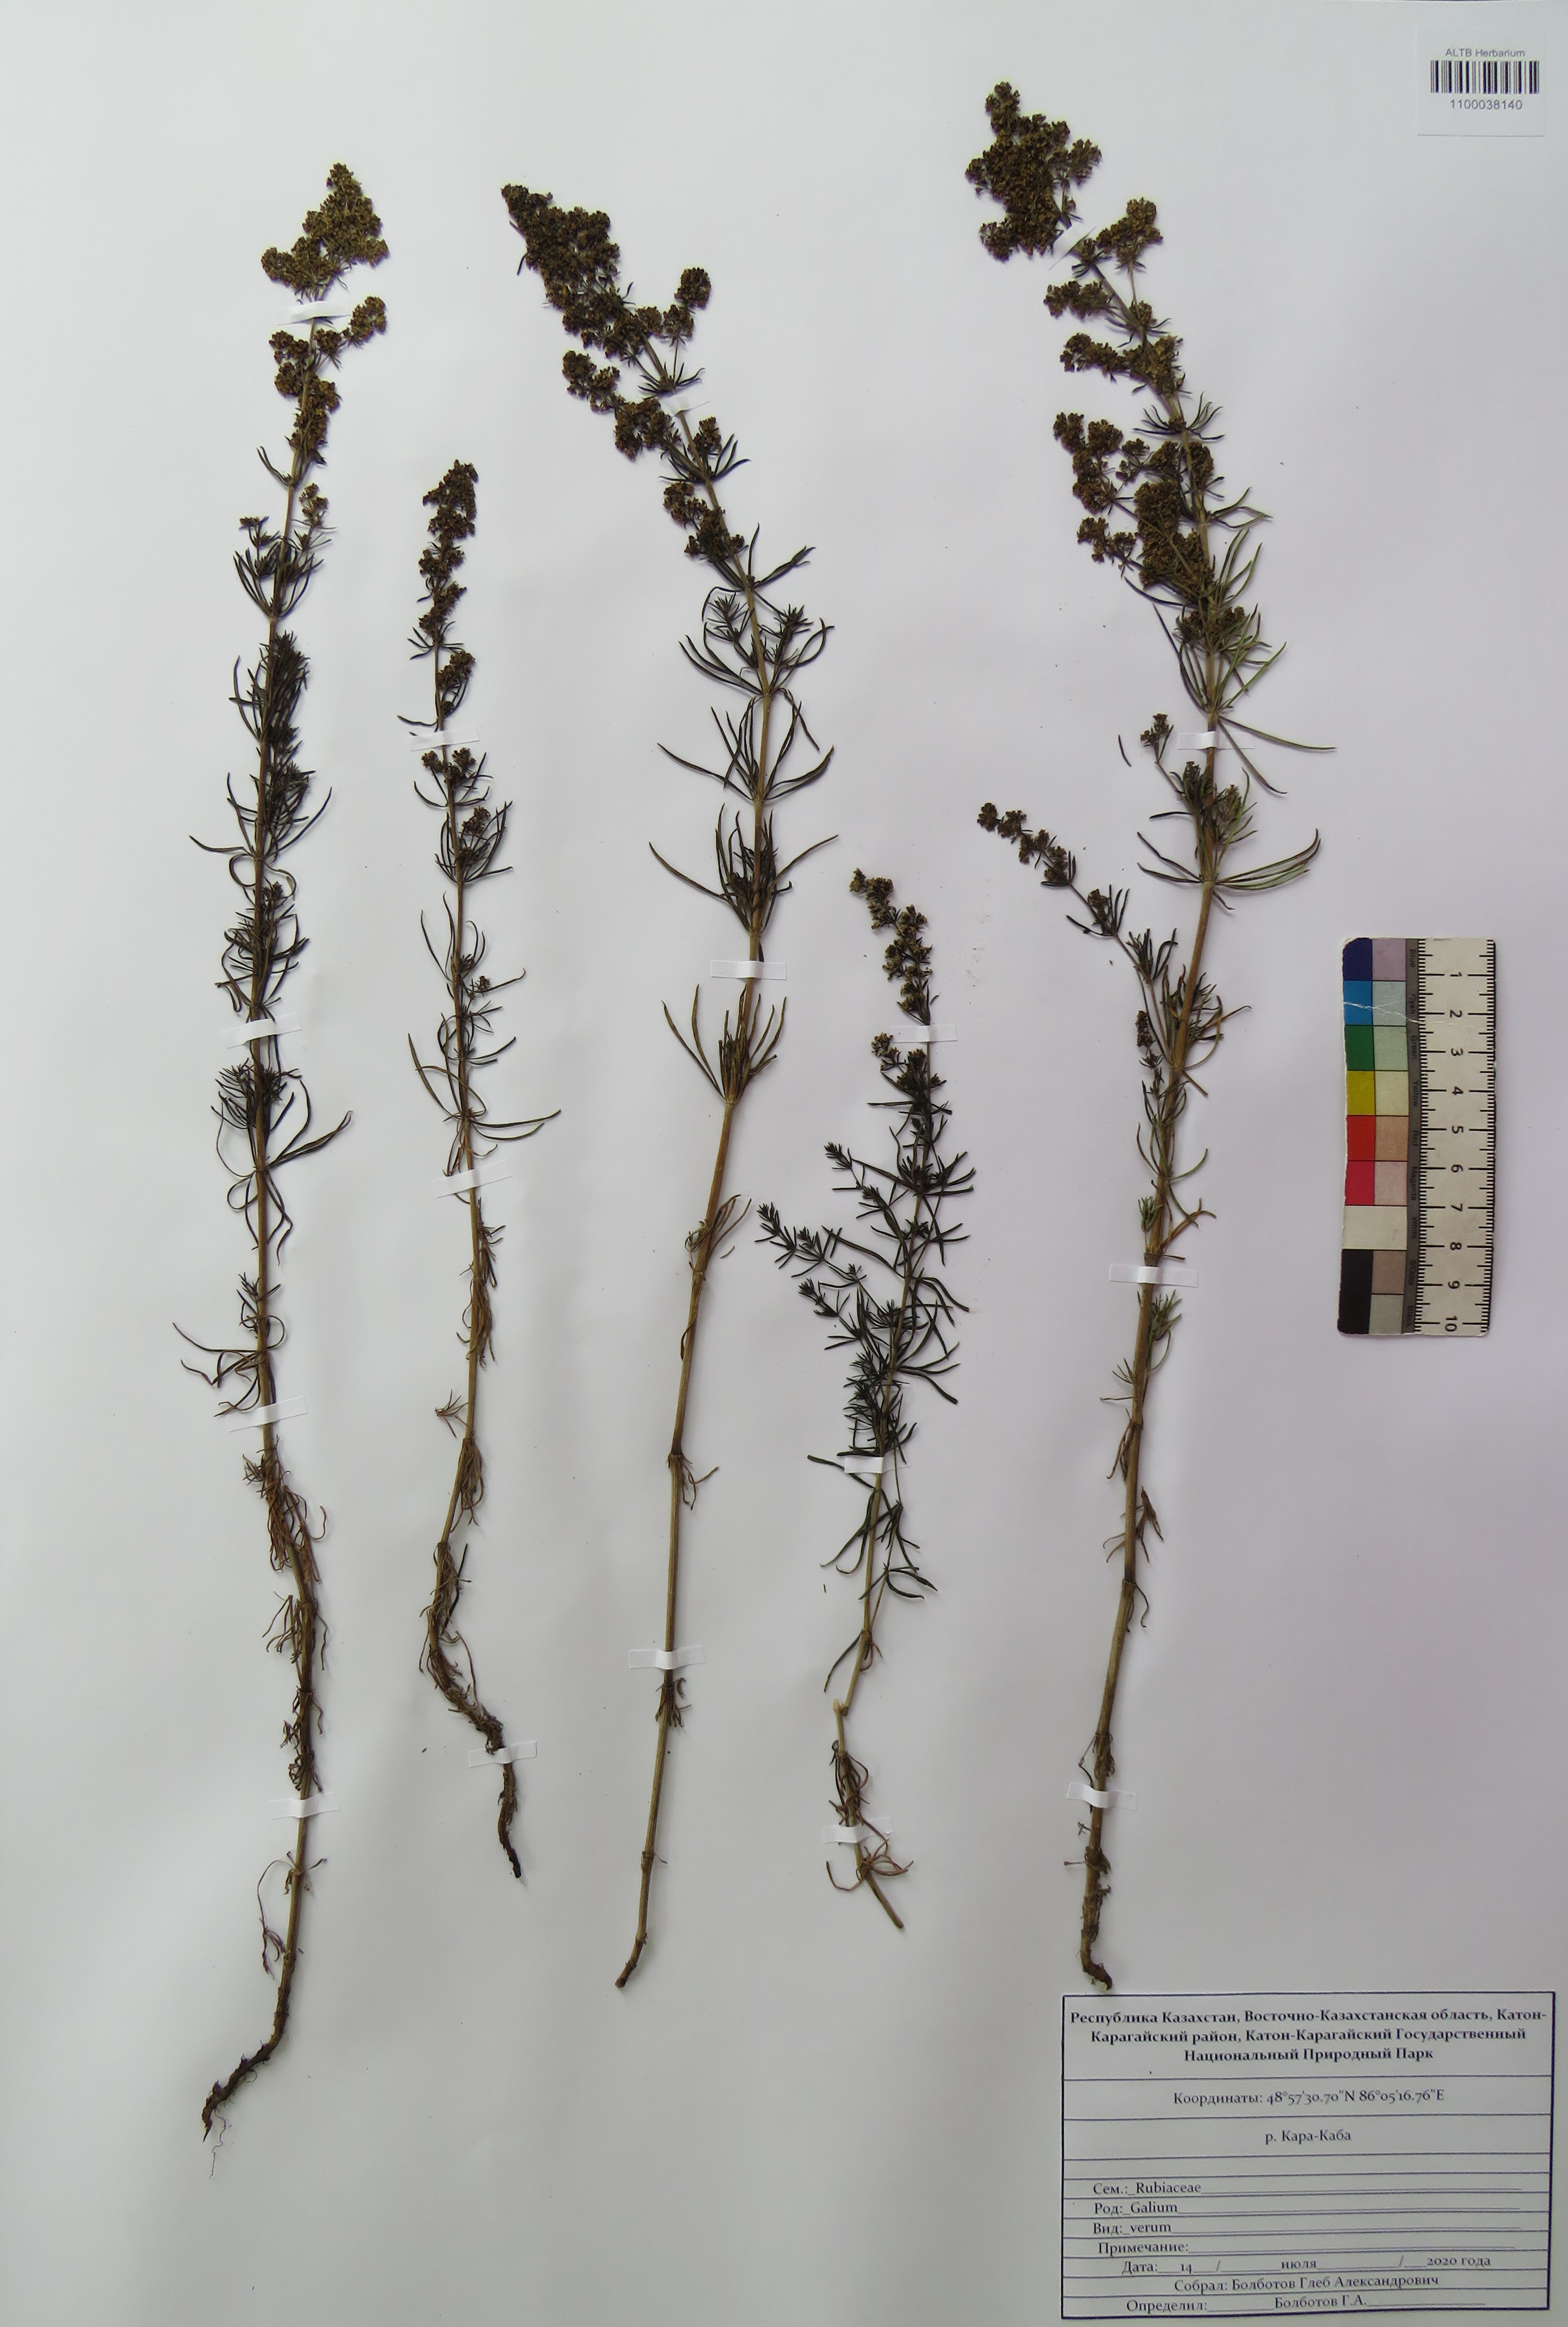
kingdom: Plantae
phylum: Tracheophyta
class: Magnoliopsida
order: Gentianales
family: Rubiaceae
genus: Galium
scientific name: Galium verum
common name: Lady's bedstraw
